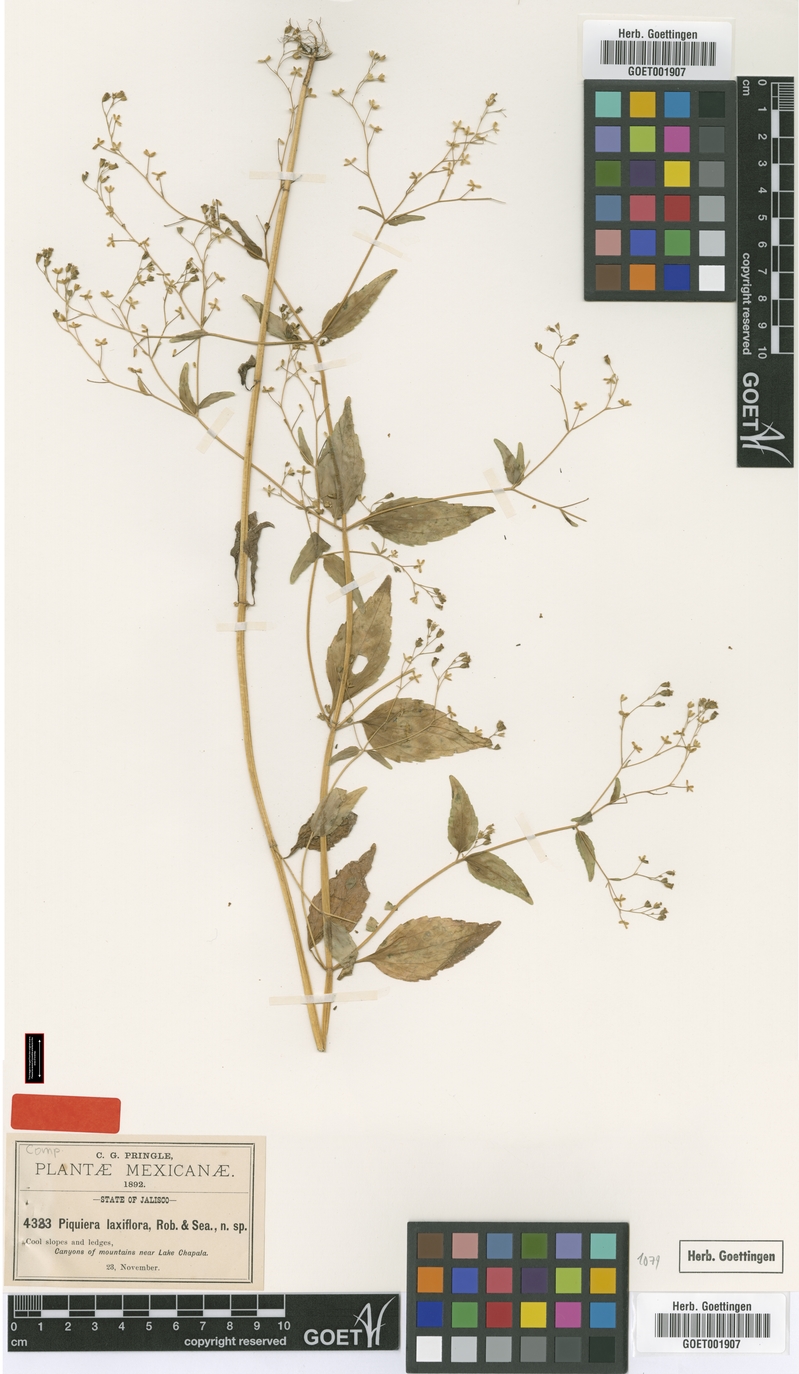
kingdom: Plantae
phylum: Tracheophyta
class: Magnoliopsida
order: Asterales
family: Asteraceae
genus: Piqueria
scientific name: Piqueria laxiflora
